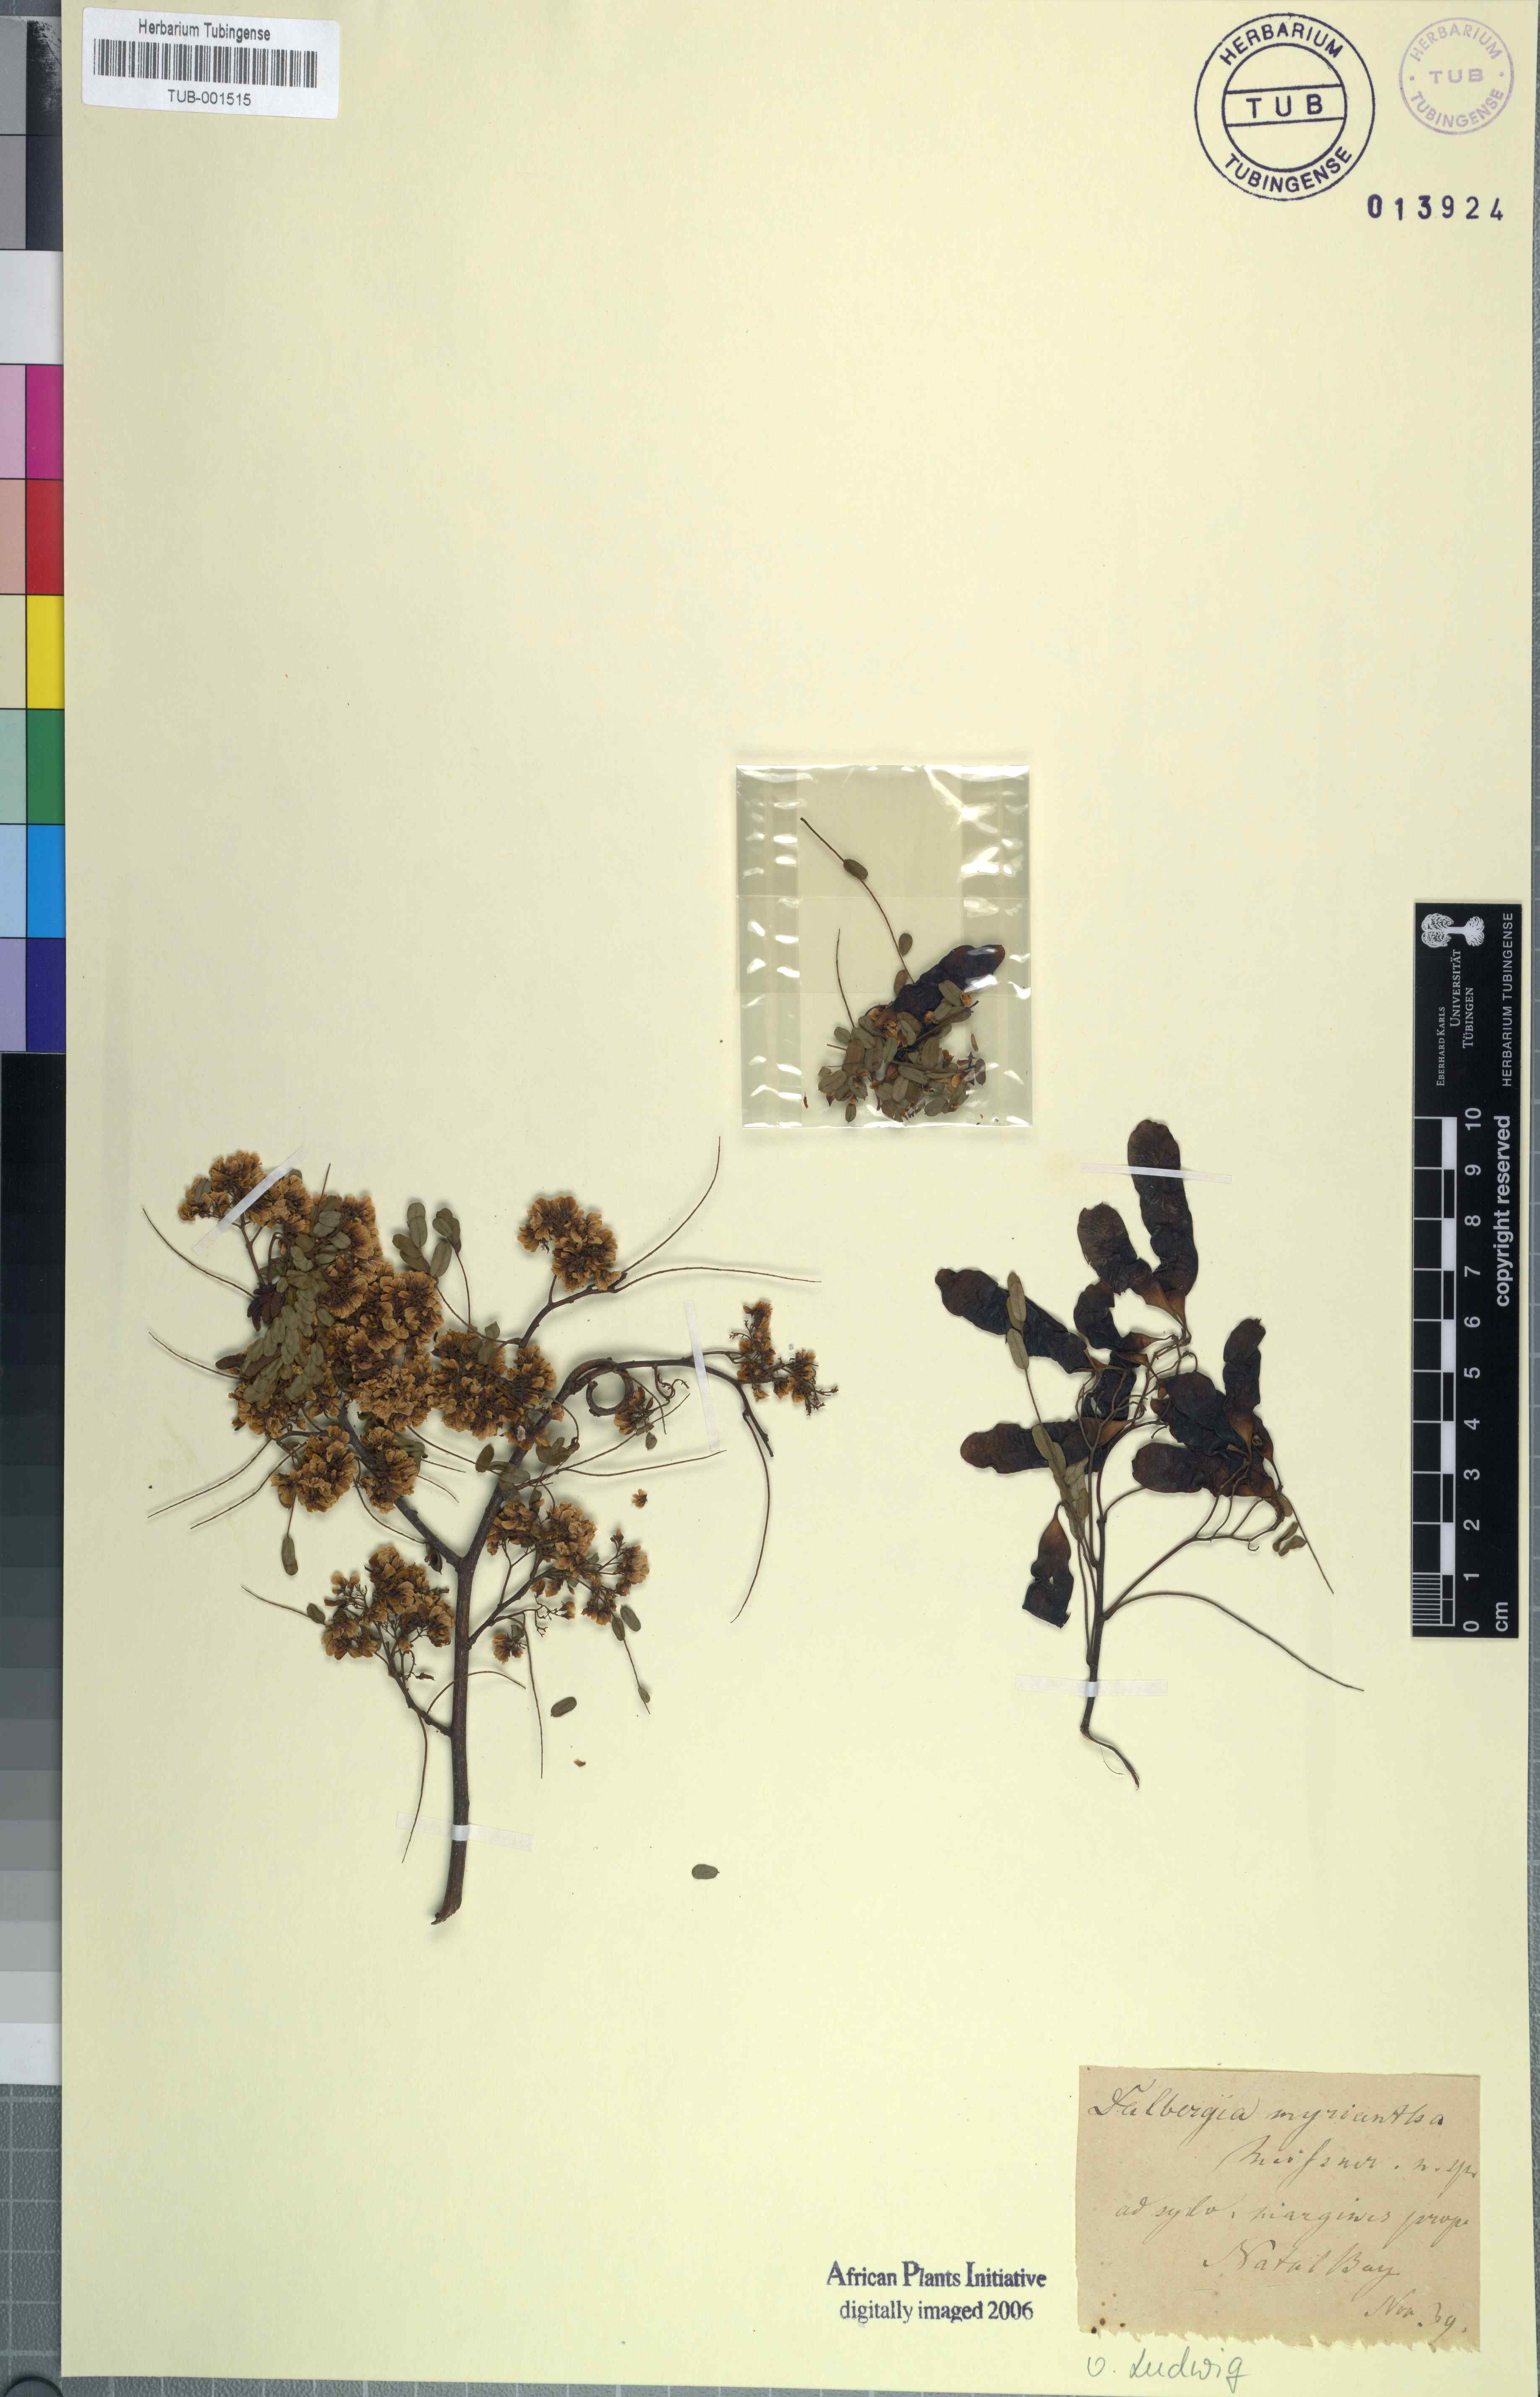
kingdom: Plantae
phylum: Tracheophyta
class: Magnoliopsida
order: Fabales
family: Fabaceae
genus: Dalbergia
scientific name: Dalbergia armata
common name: Hluhluwe climber
